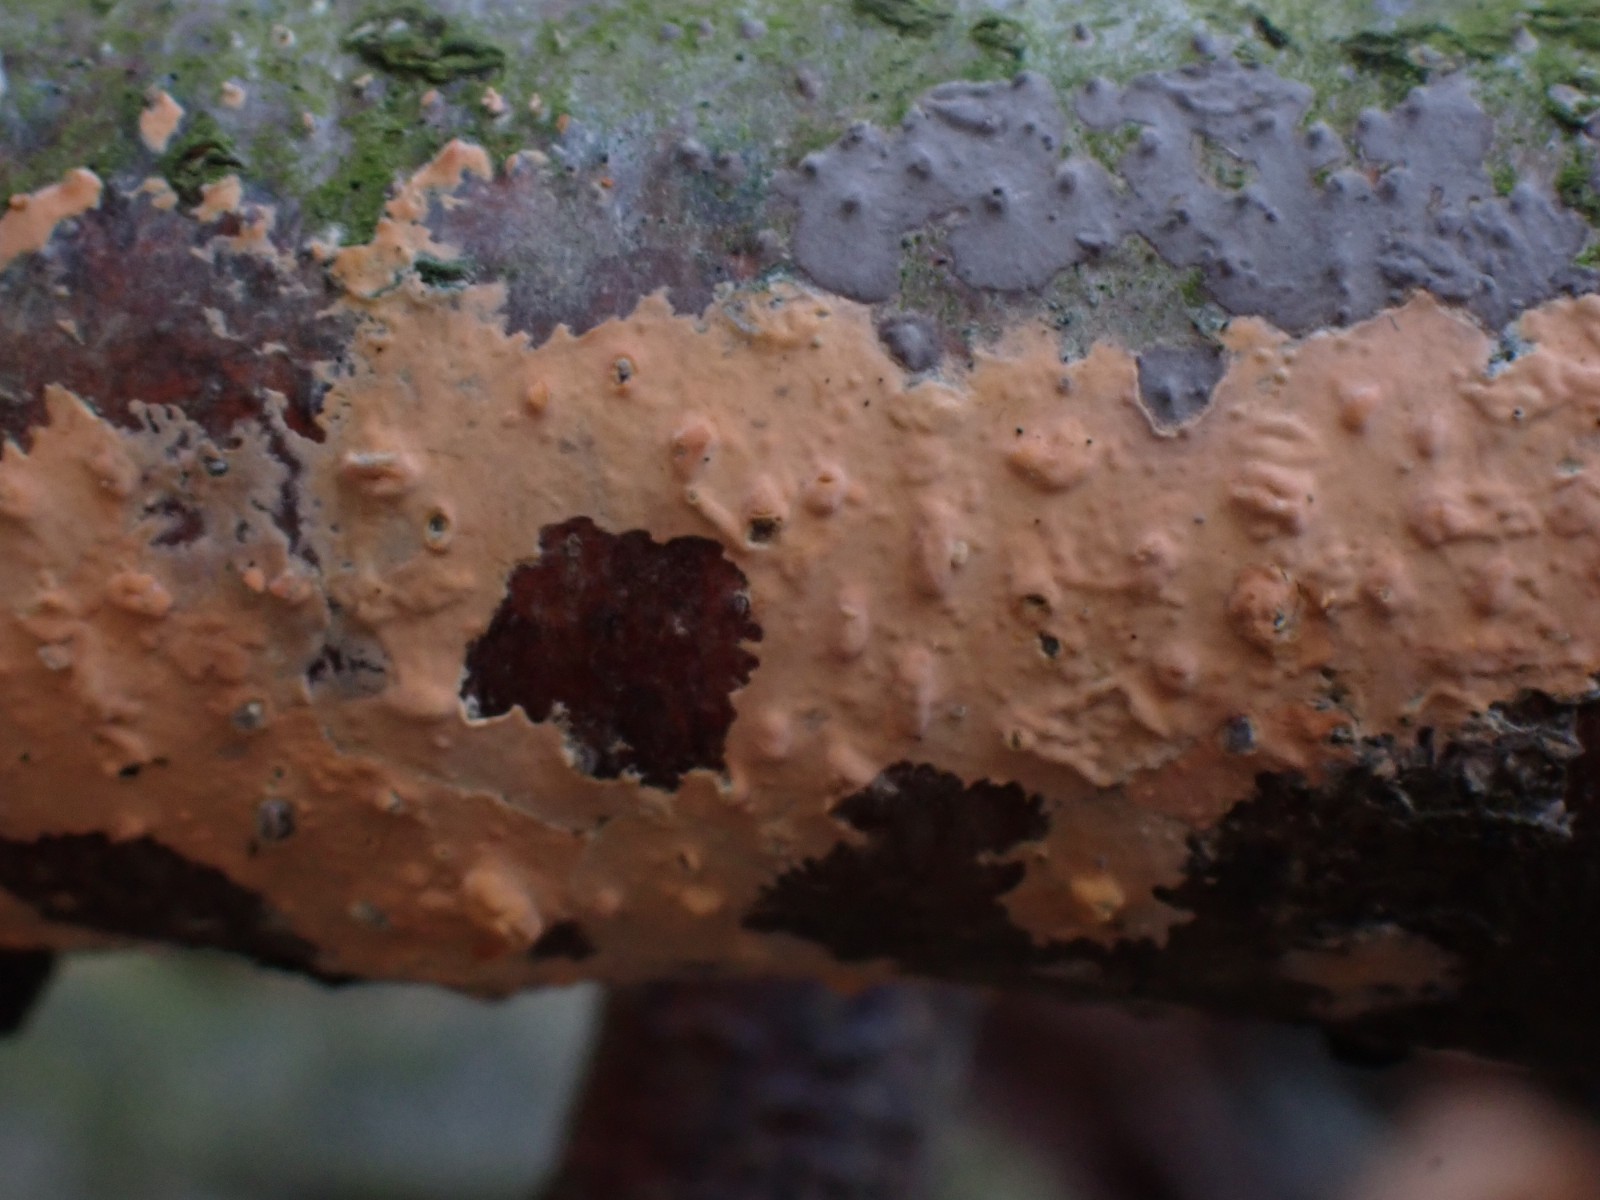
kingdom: Fungi
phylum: Basidiomycota
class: Agaricomycetes
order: Russulales
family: Peniophoraceae
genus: Peniophora
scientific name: Peniophora incarnata
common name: laksefarvet voksskind
